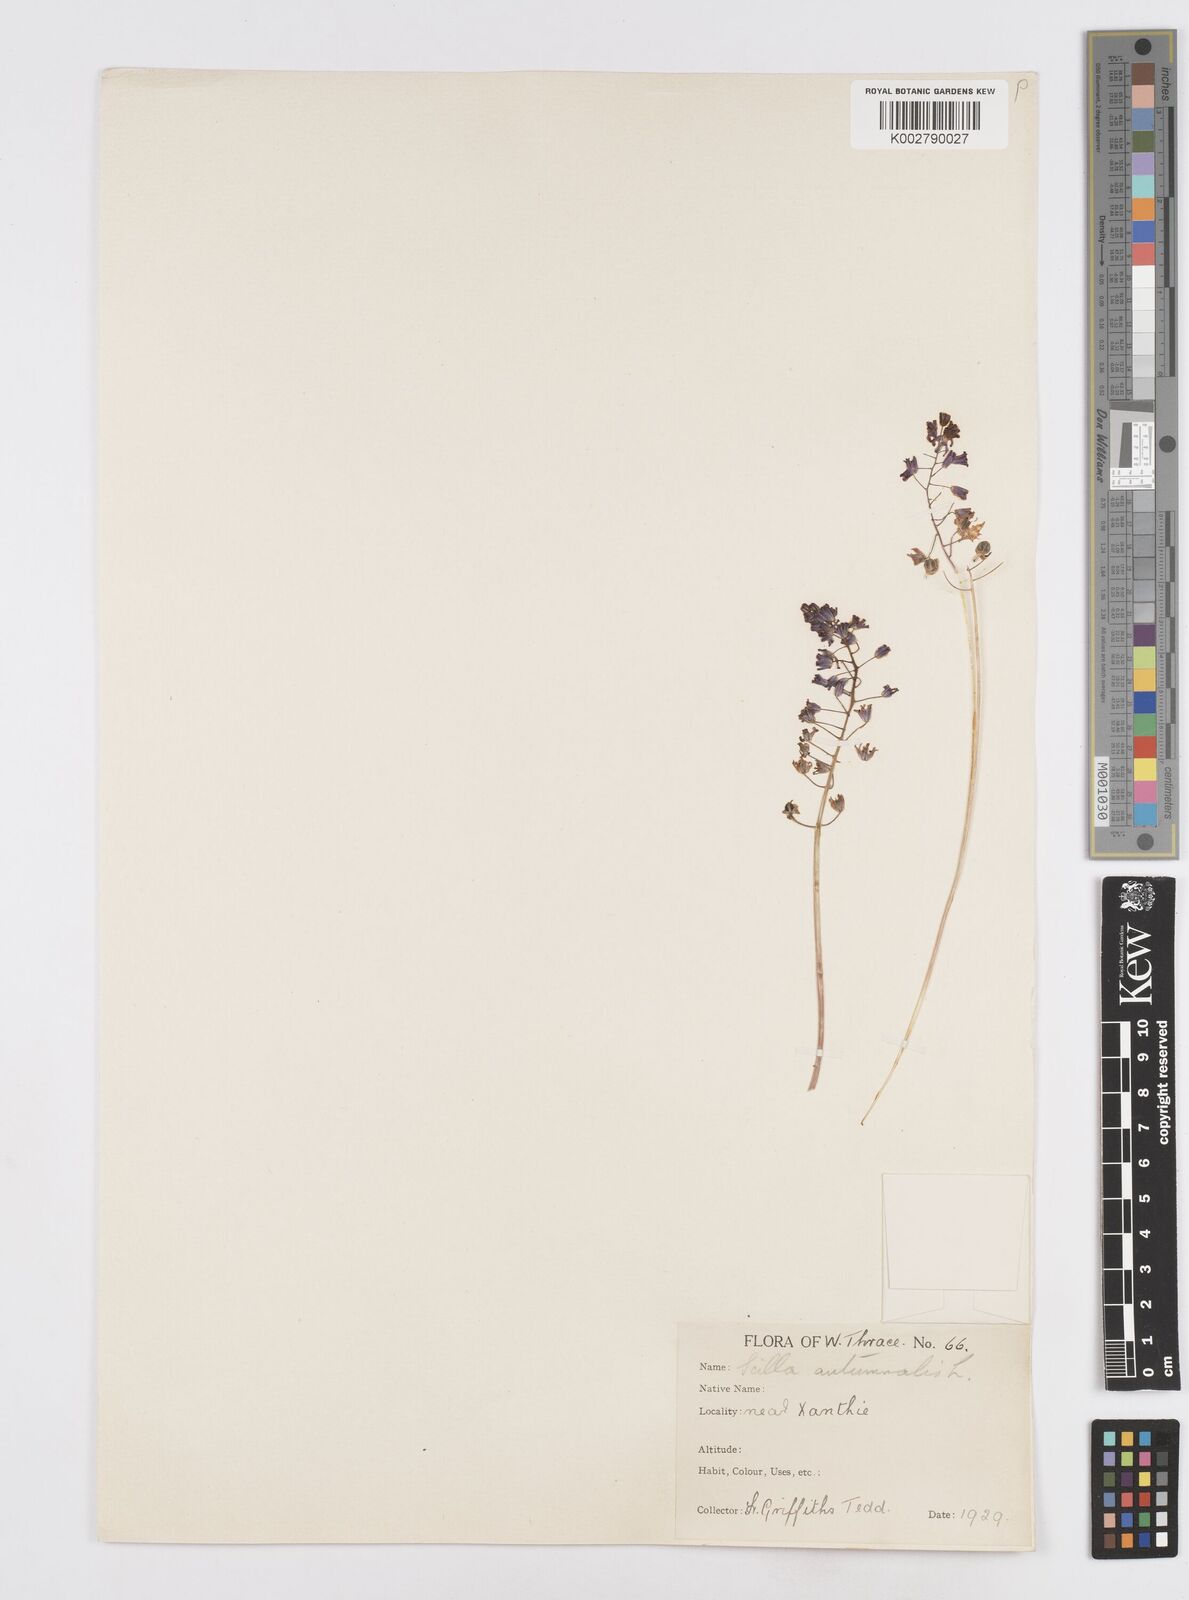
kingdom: Plantae
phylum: Tracheophyta
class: Liliopsida
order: Asparagales
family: Asparagaceae
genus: Prospero
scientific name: Prospero autumnale
